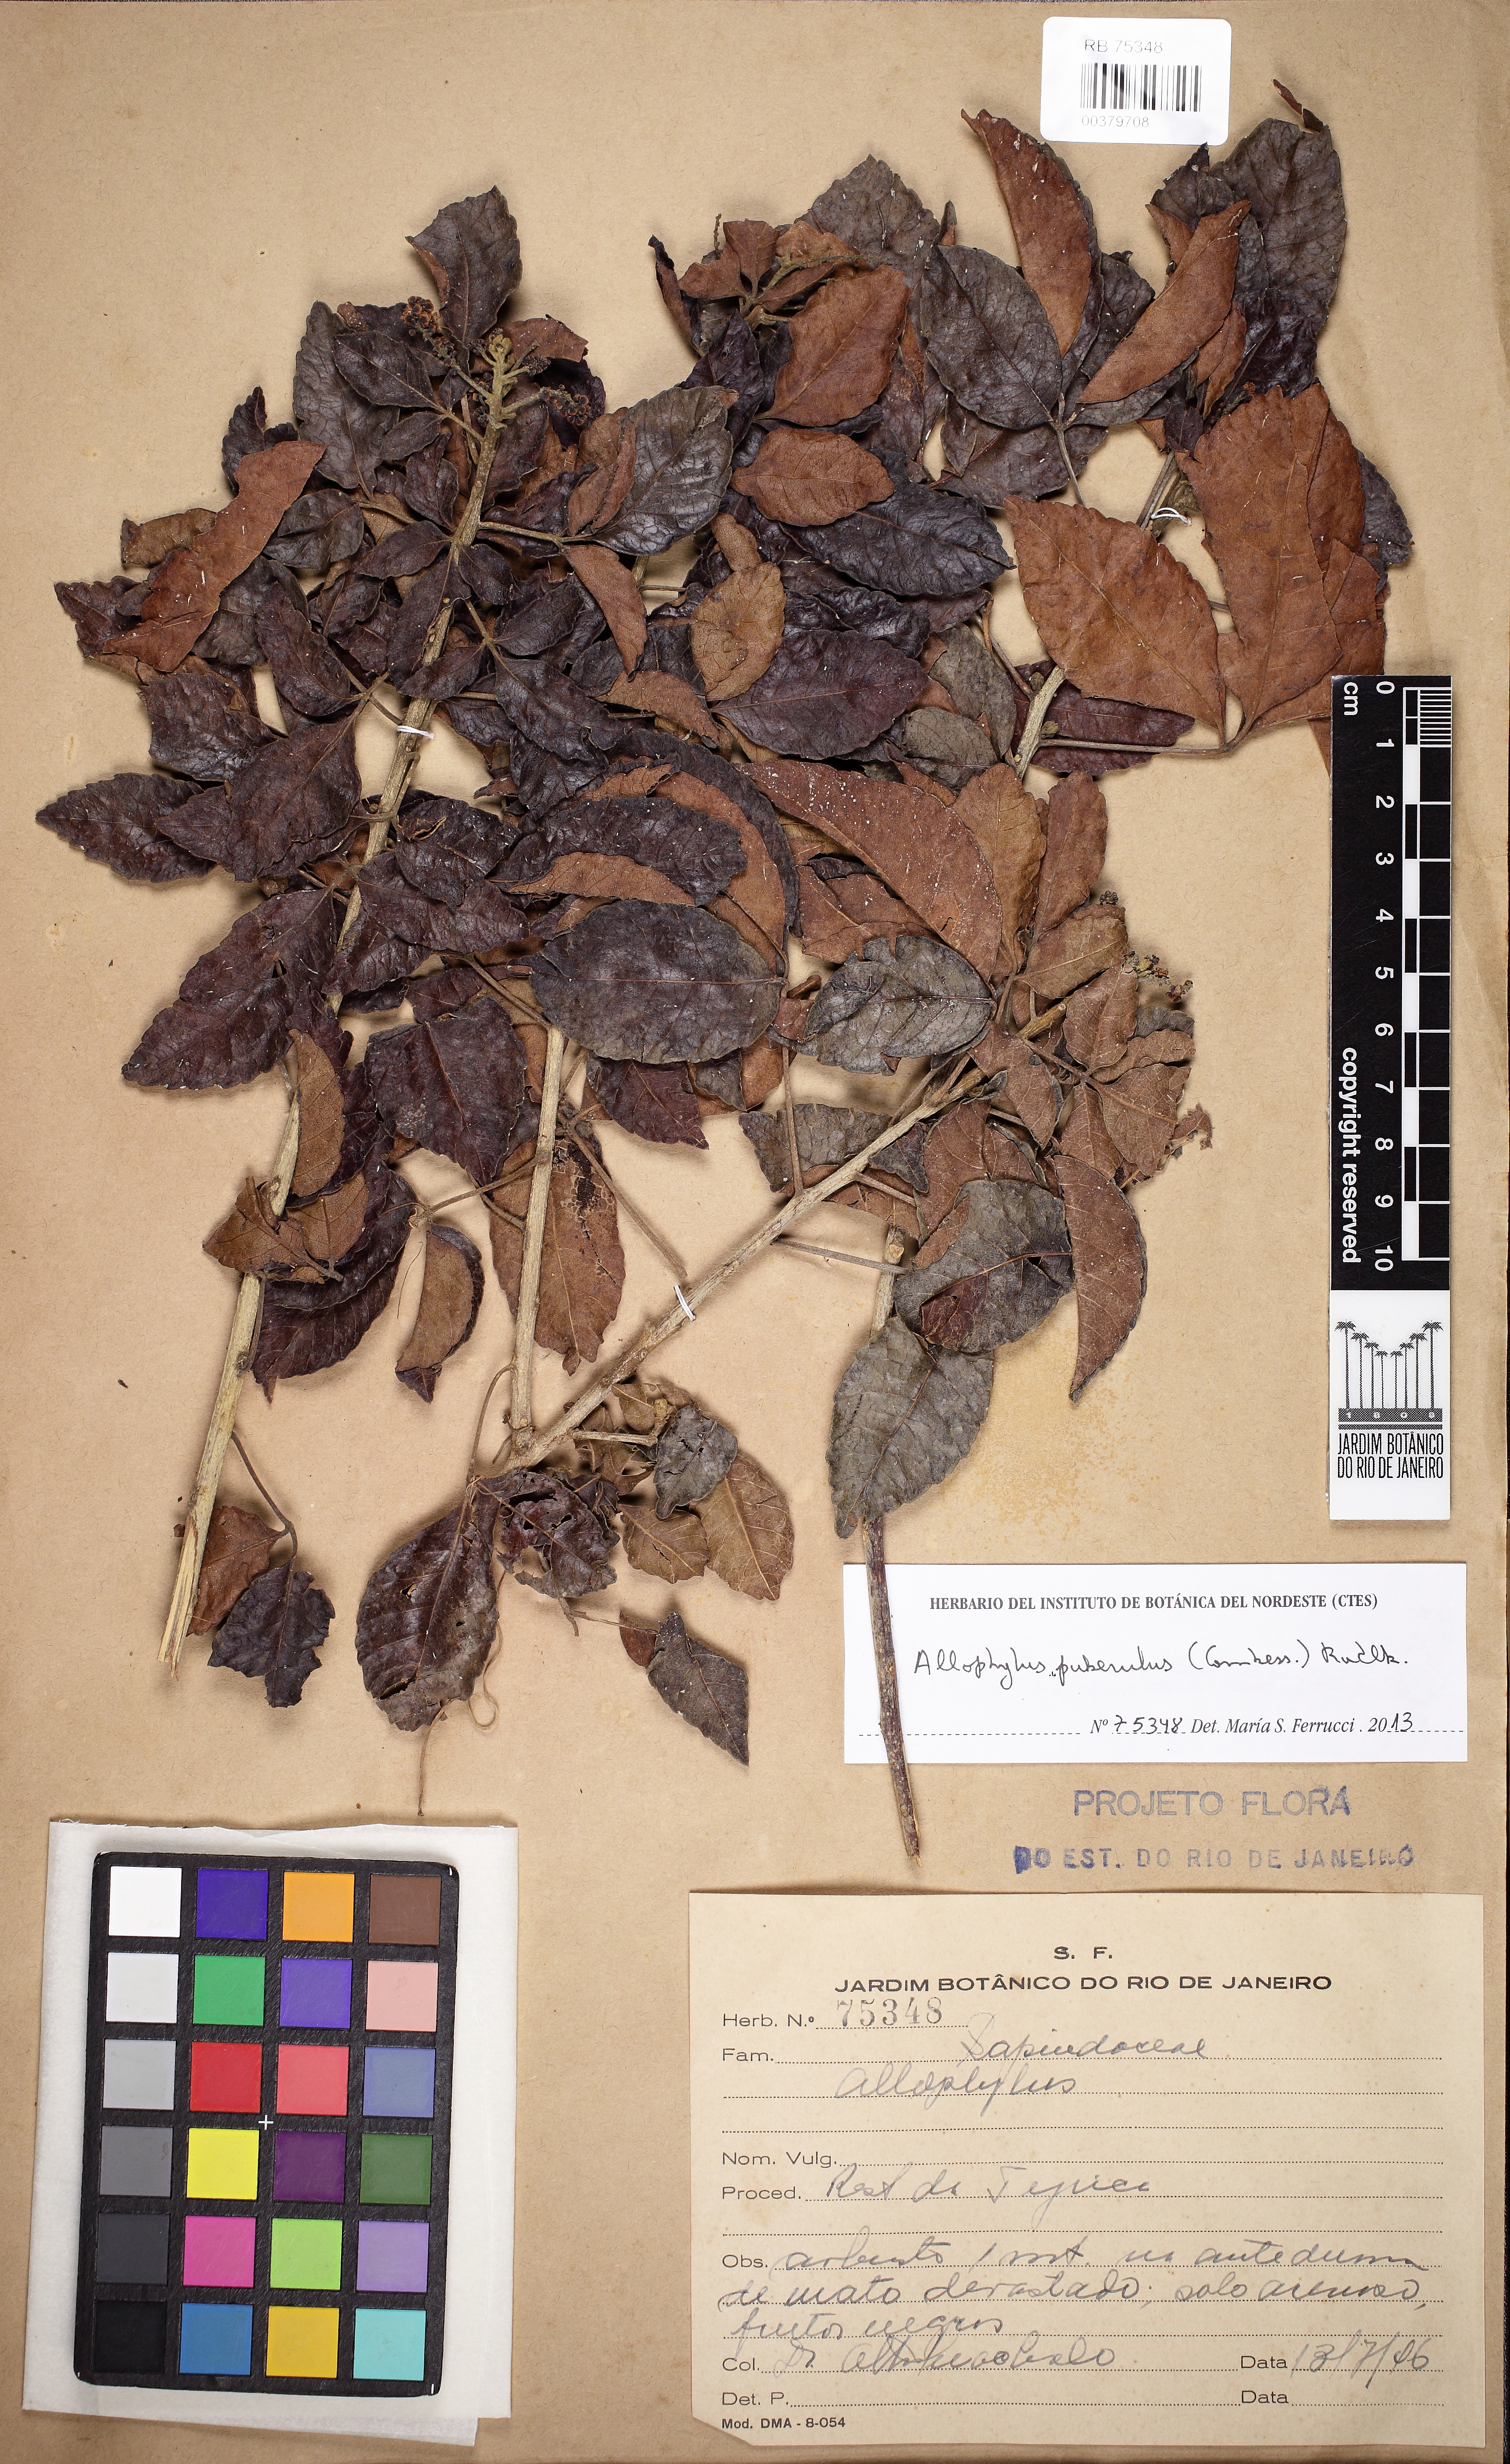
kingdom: Plantae
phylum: Tracheophyta
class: Magnoliopsida
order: Sapindales
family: Sapindaceae
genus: Allophylus
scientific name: Allophylus
